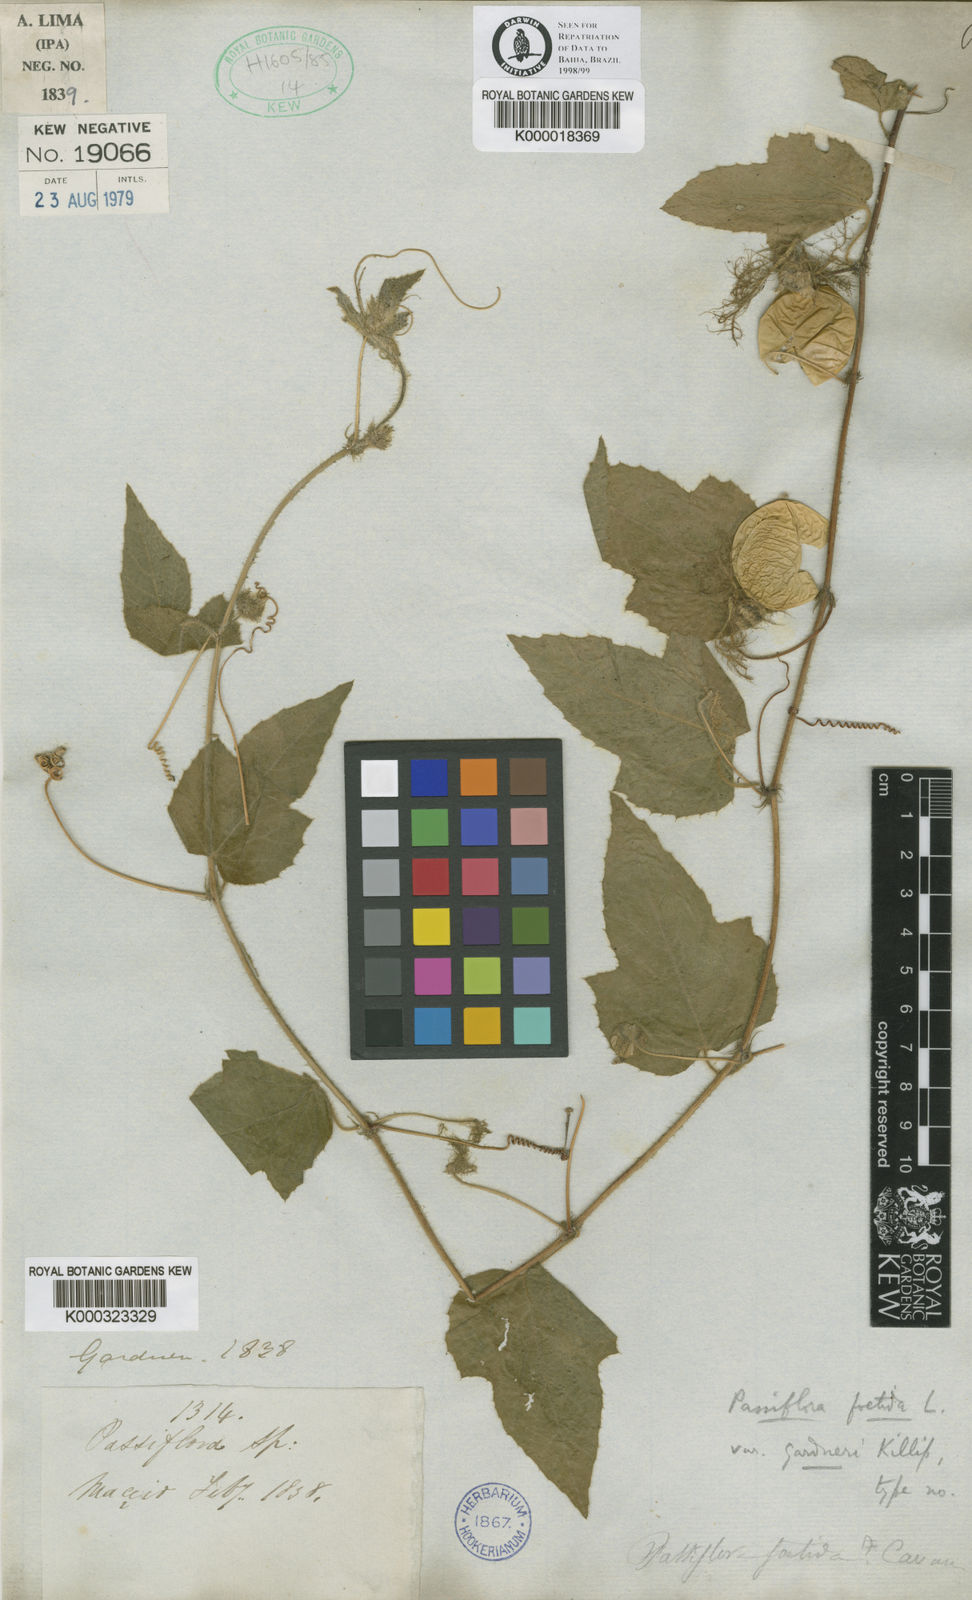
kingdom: Plantae
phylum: Tracheophyta
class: Magnoliopsida
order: Malpighiales
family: Passifloraceae
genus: Passiflora
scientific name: Passiflora foetida
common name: Fetid passionflower
